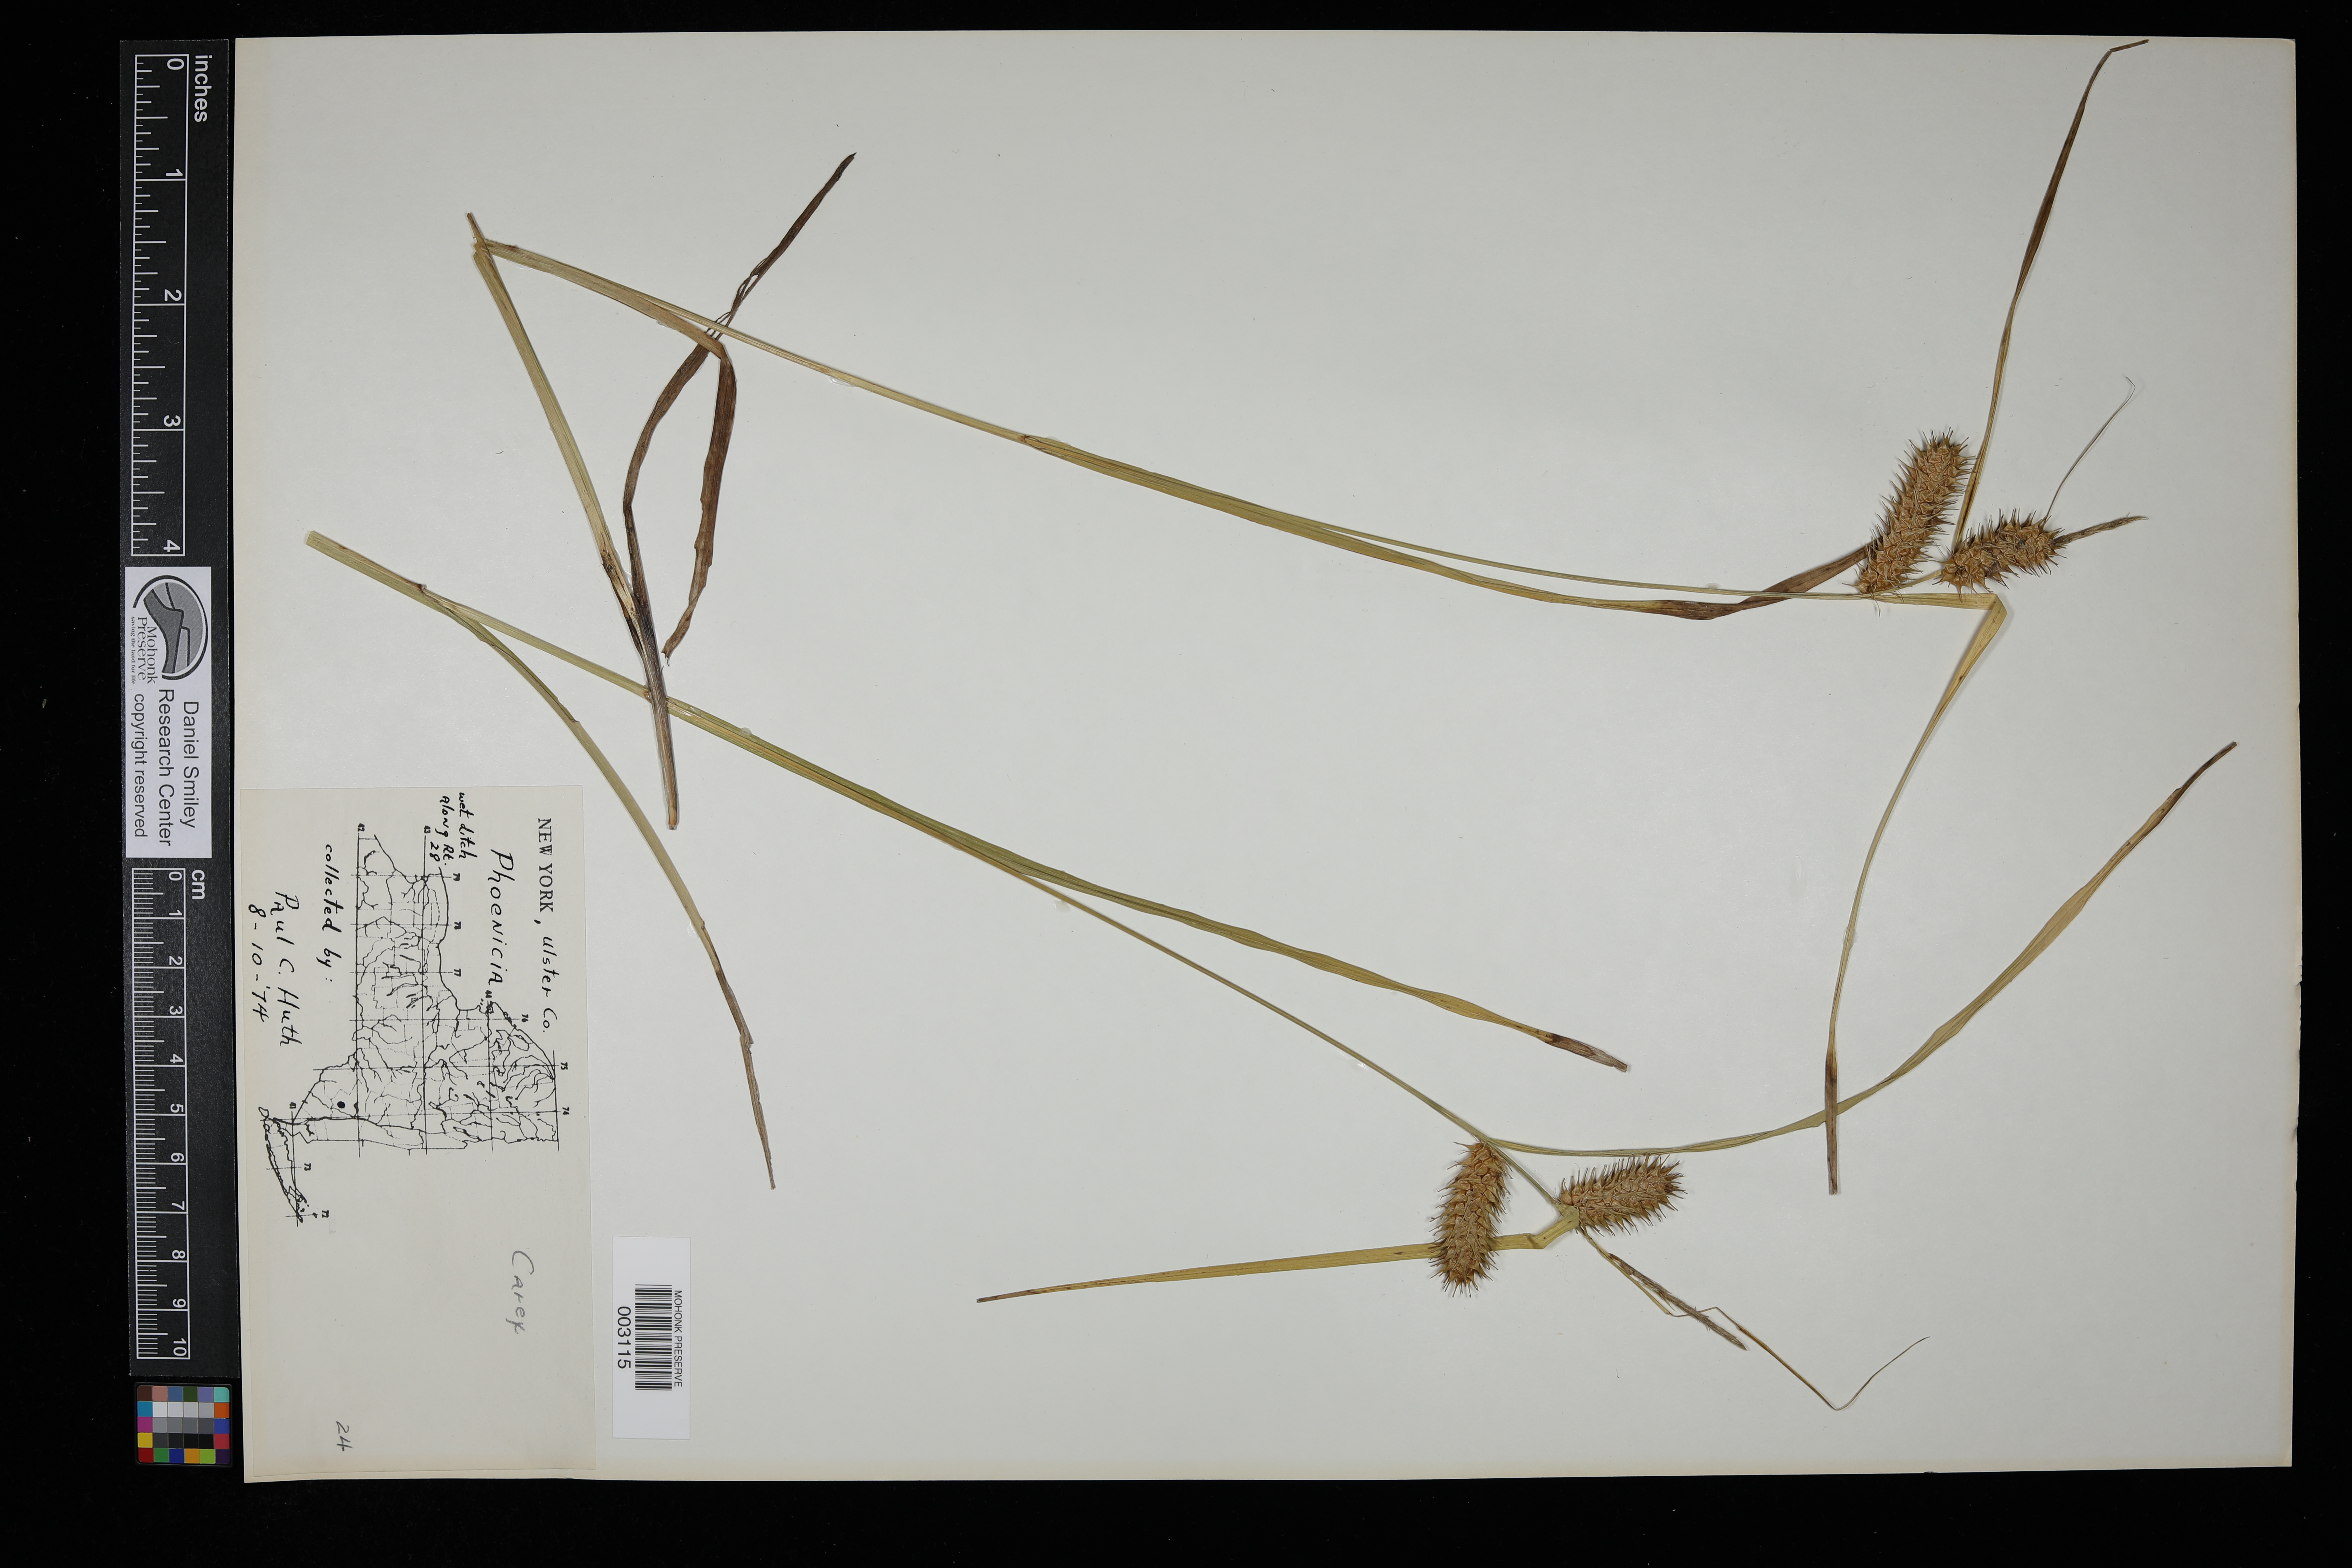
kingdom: Plantae
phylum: Tracheophyta
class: Liliopsida
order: Poales
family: Cyperaceae
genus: Carex
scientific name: Carex
